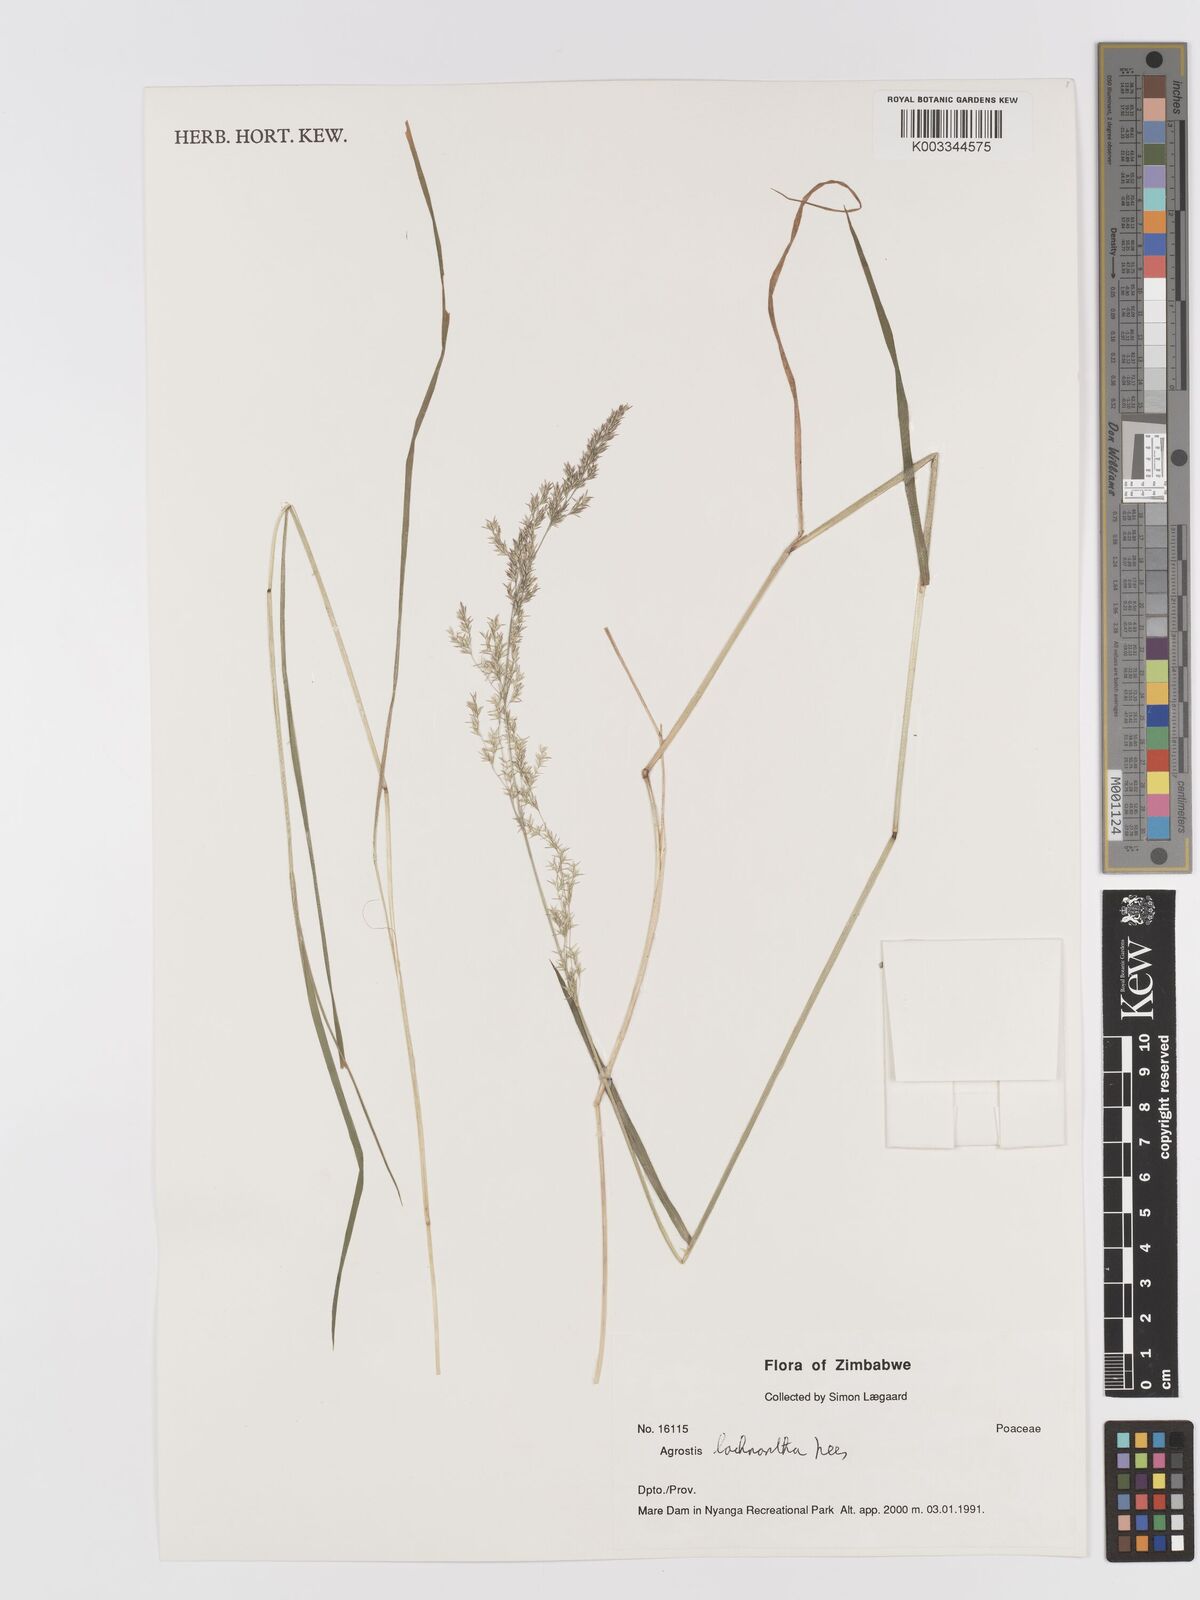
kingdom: Plantae
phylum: Tracheophyta
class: Liliopsida
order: Poales
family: Poaceae
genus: Lachnagrostis
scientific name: Lachnagrostis lachnantha
